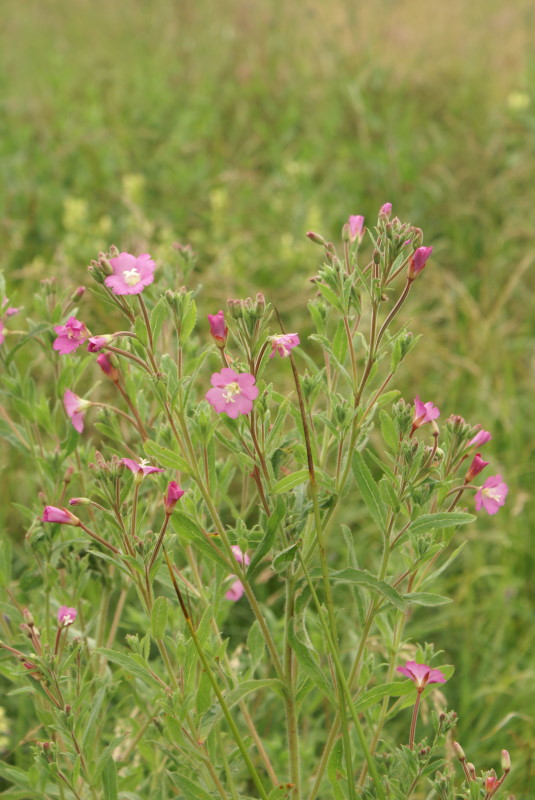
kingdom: Plantae
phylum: Tracheophyta
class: Magnoliopsida
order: Myrtales
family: Onagraceae
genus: Epilobium
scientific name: Epilobium hirsutum
